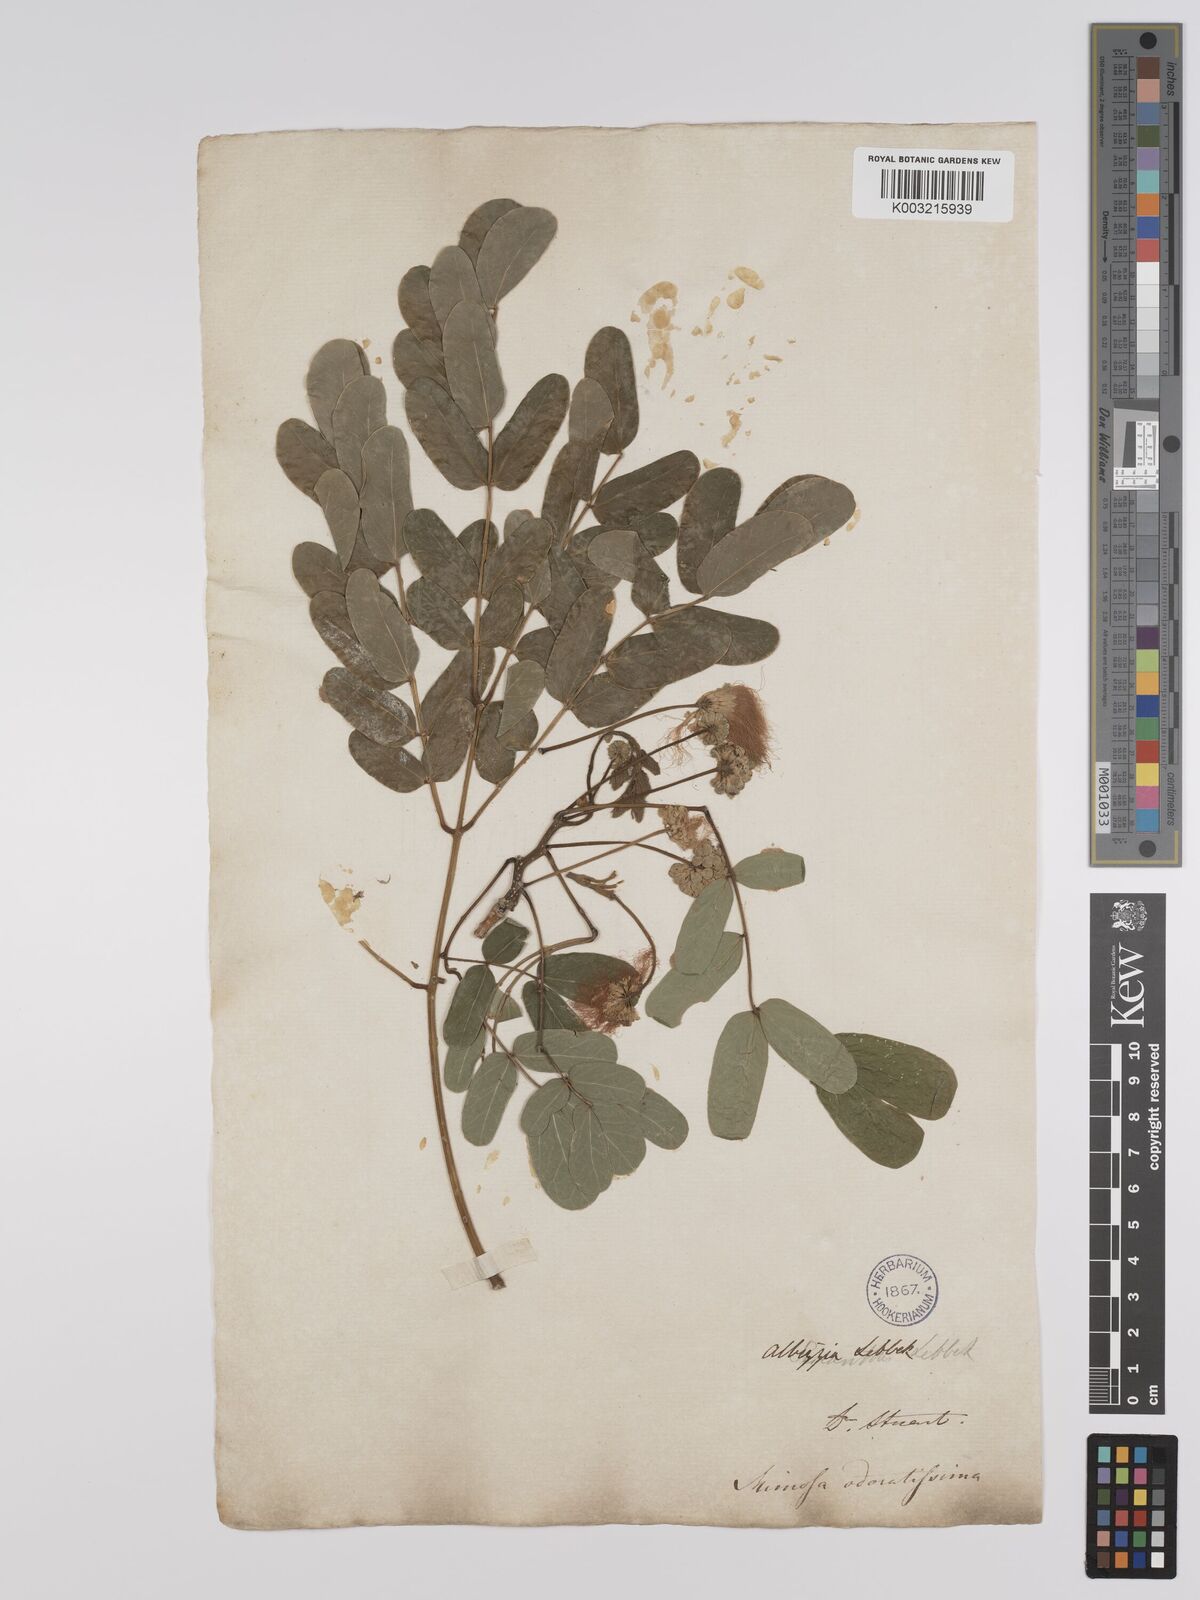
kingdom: Plantae
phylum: Tracheophyta
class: Magnoliopsida
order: Fabales
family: Fabaceae
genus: Albizia
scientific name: Albizia lebbeck
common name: Woman's tongue
